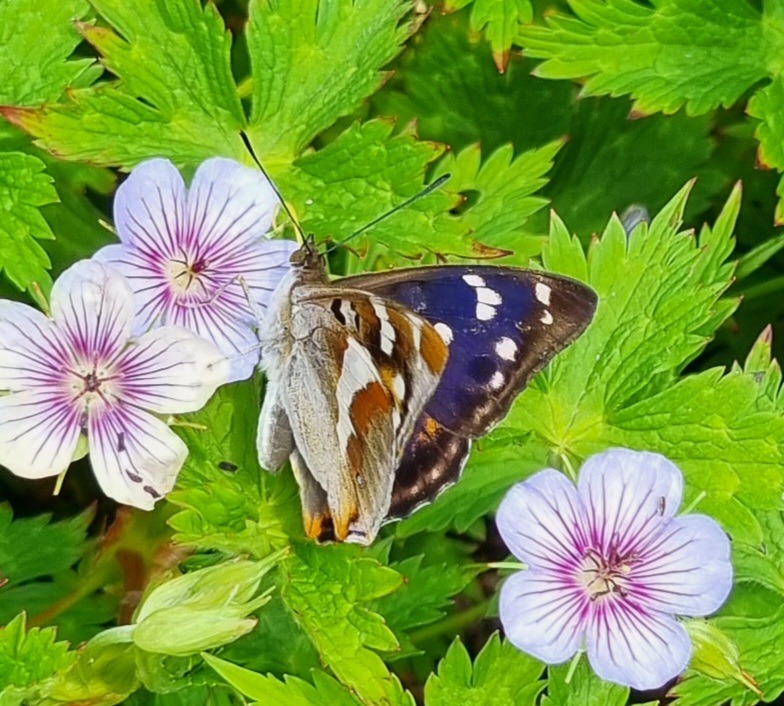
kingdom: Animalia
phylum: Arthropoda
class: Insecta
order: Lepidoptera
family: Nymphalidae
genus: Apatura
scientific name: Apatura iris
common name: Iris
